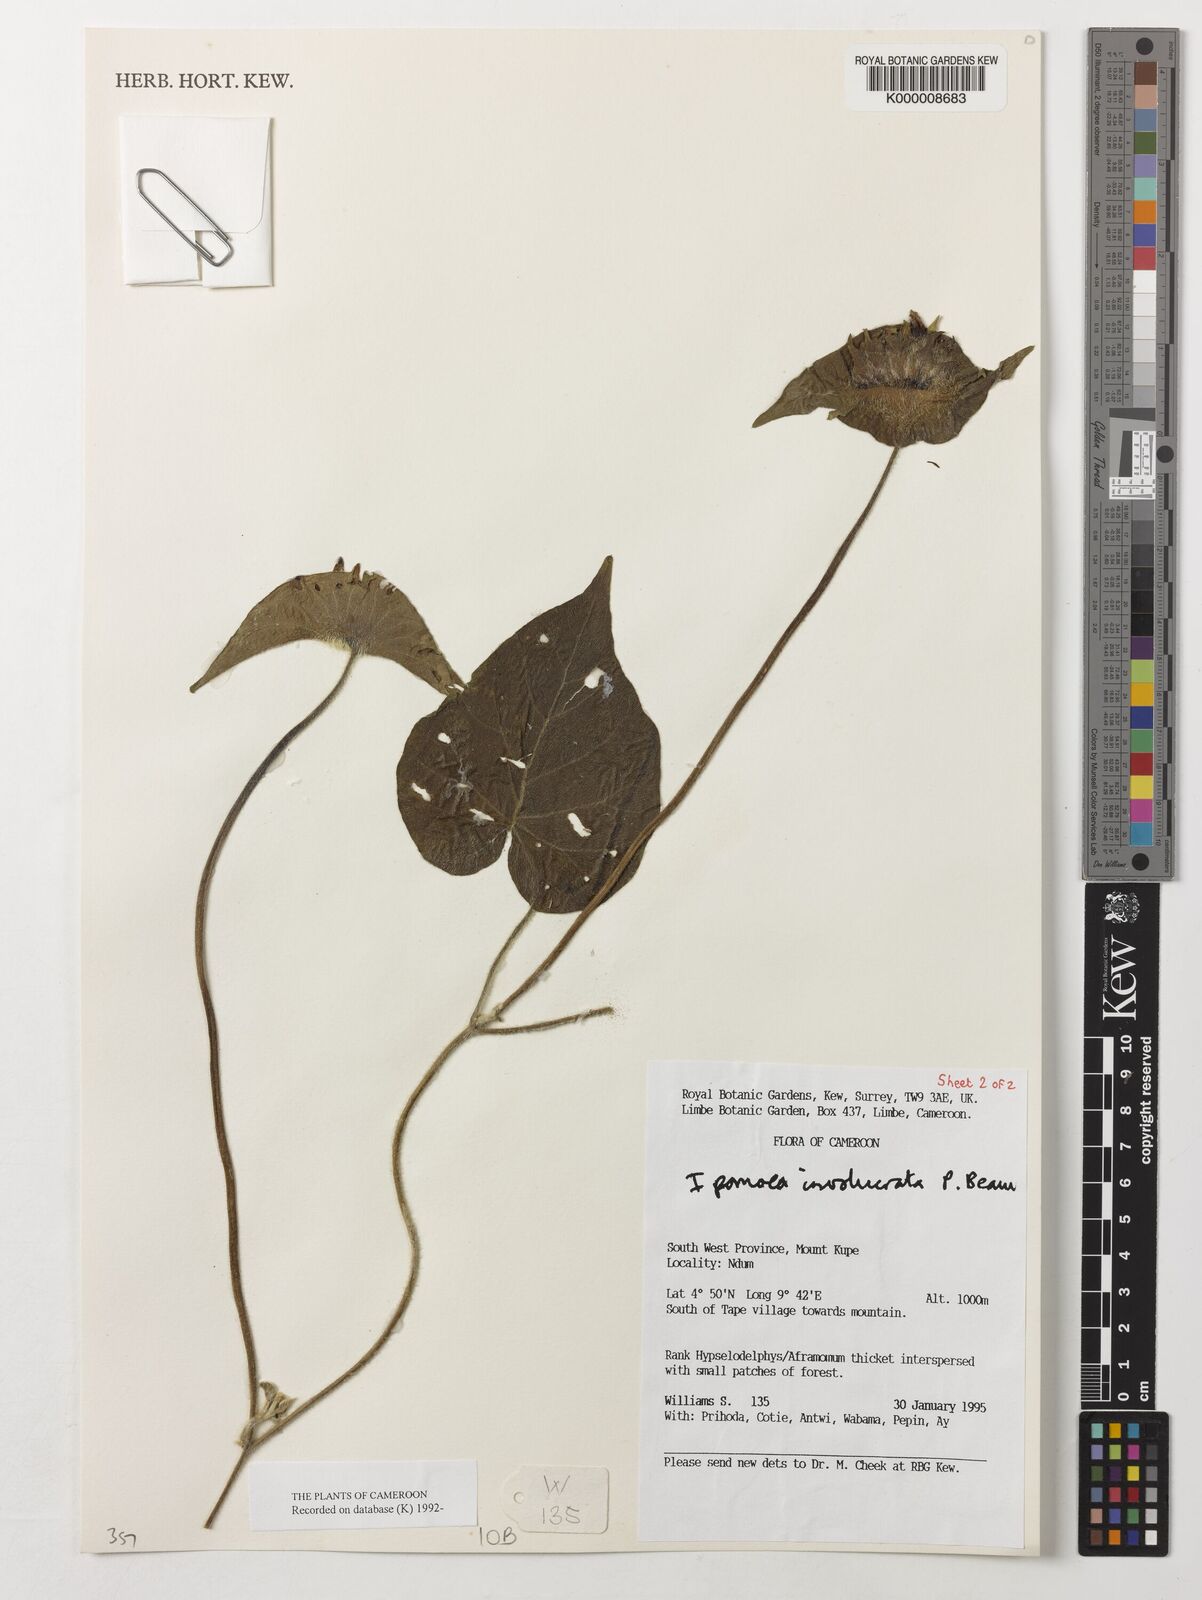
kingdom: Plantae
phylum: Tracheophyta
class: Magnoliopsida
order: Solanales
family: Convolvulaceae
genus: Ipomoea
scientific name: Ipomoea involucrata
